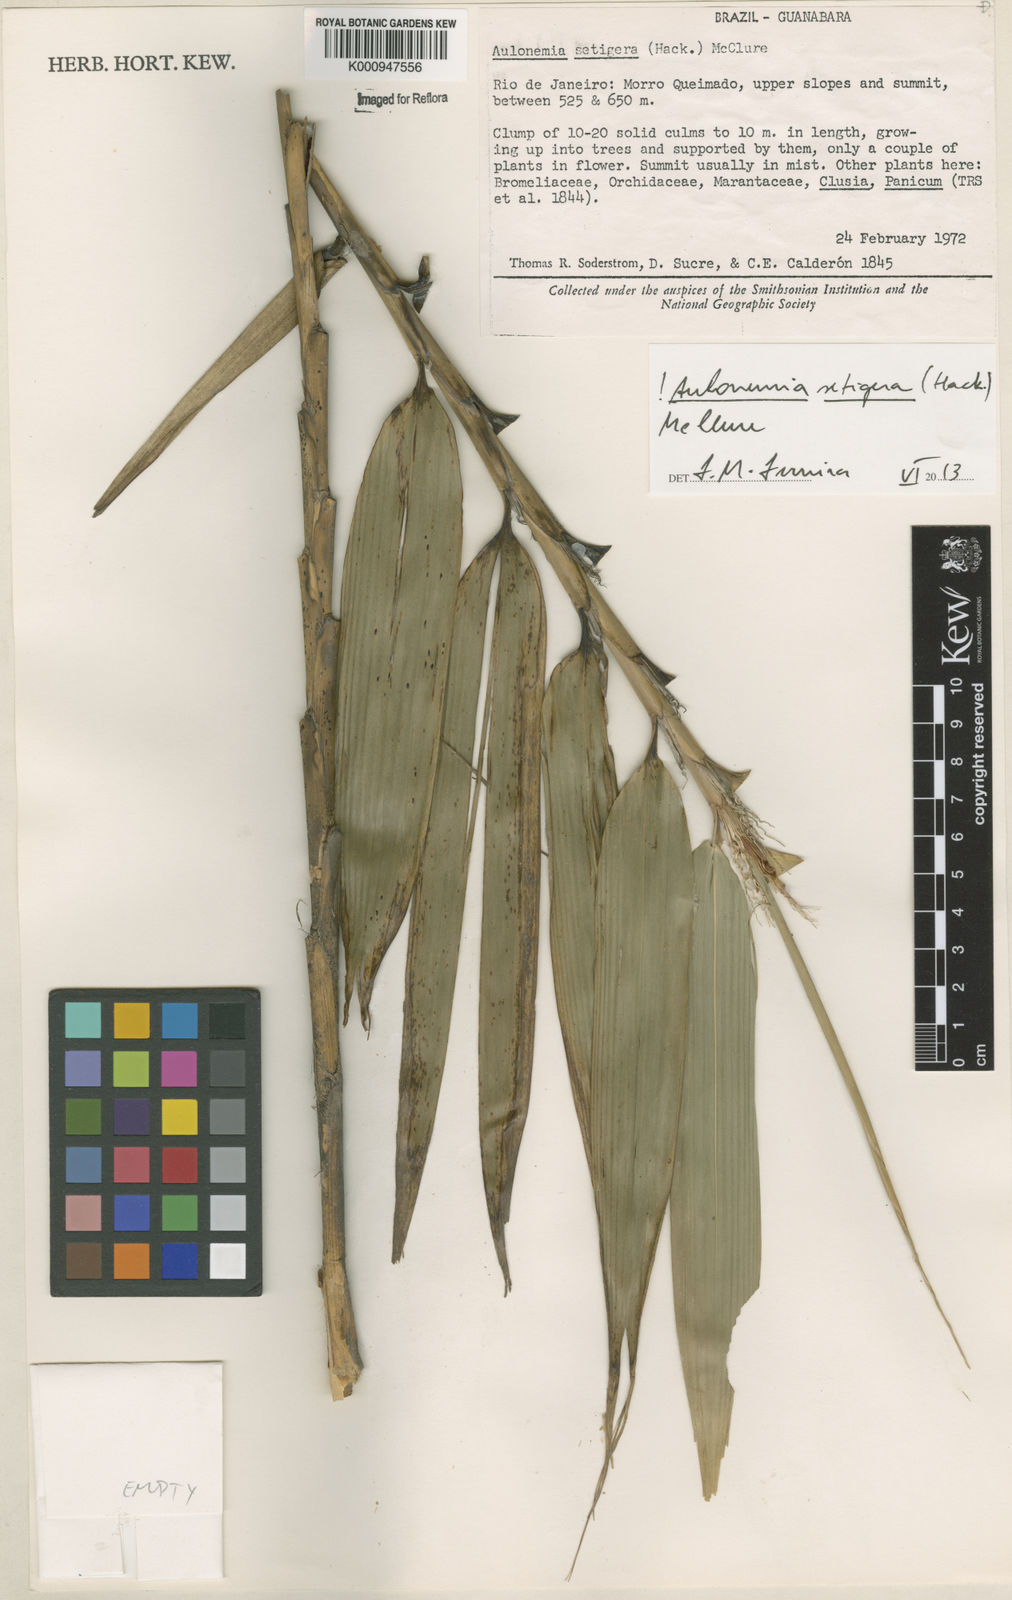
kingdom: Plantae
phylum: Tracheophyta
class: Liliopsida
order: Poales
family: Poaceae
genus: Aulonemia
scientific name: Aulonemia setigera
